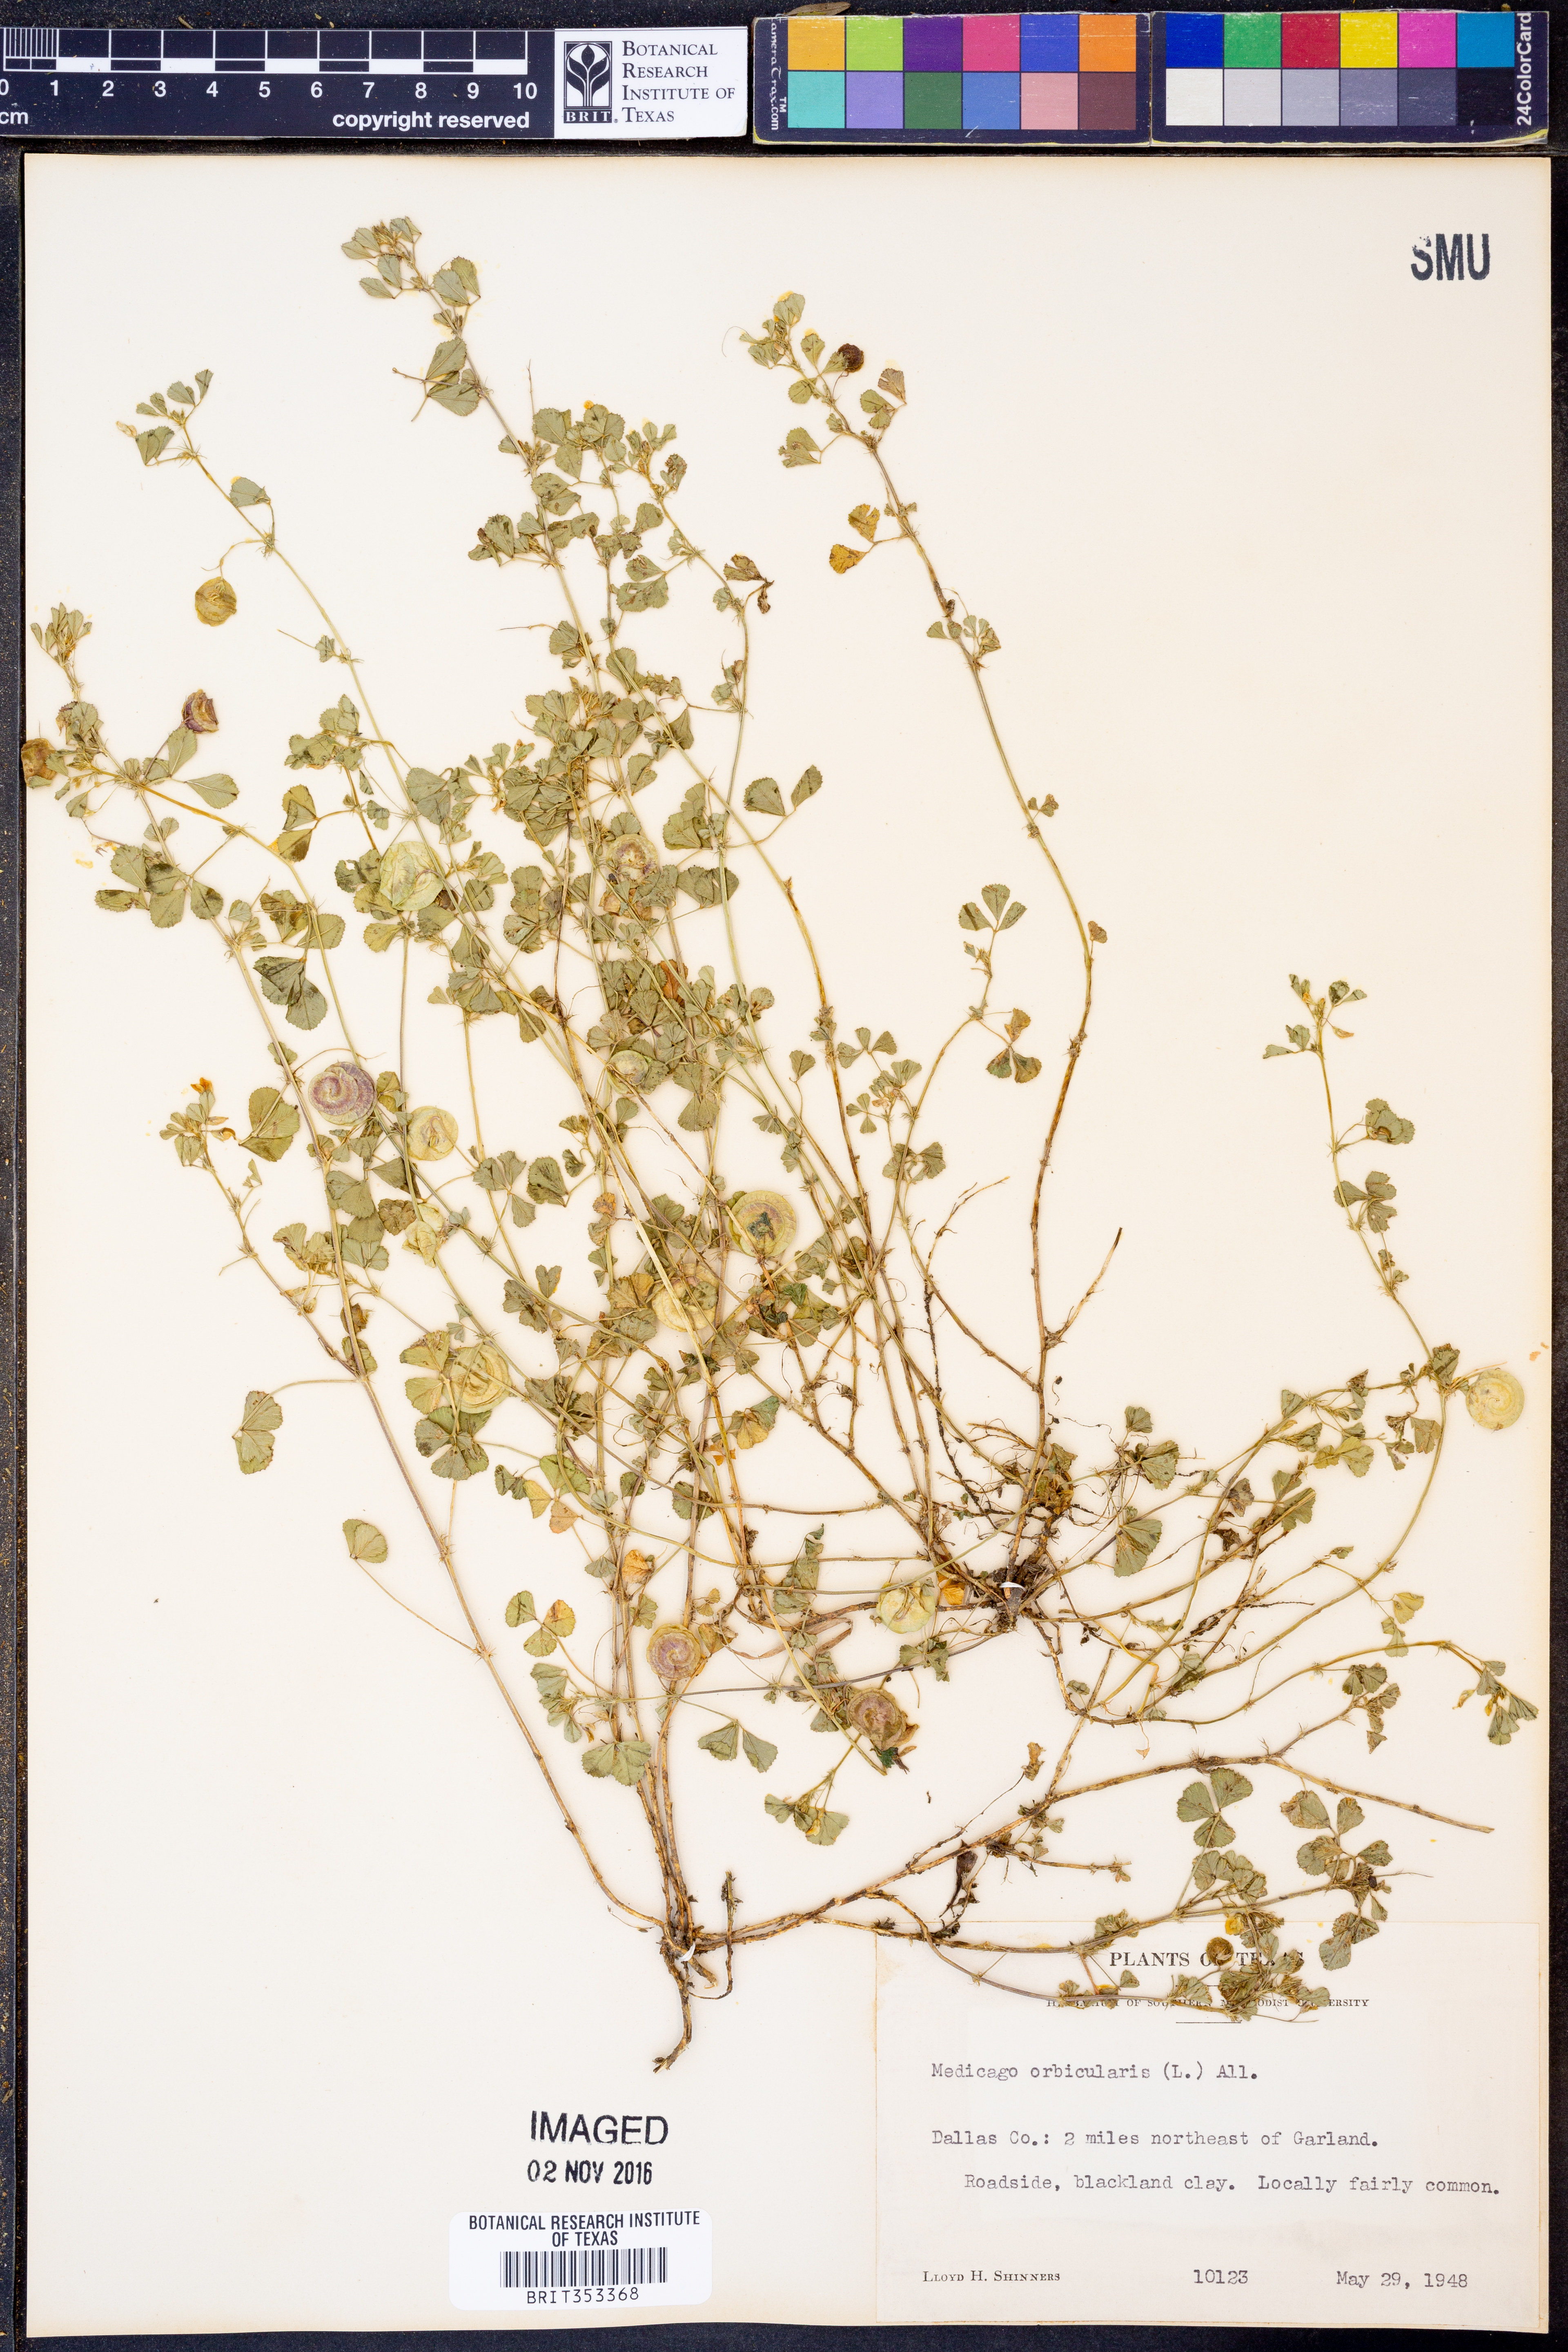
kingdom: Plantae
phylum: Tracheophyta
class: Magnoliopsida
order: Fabales
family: Fabaceae
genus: Medicago
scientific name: Medicago orbicularis
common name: Button medick
